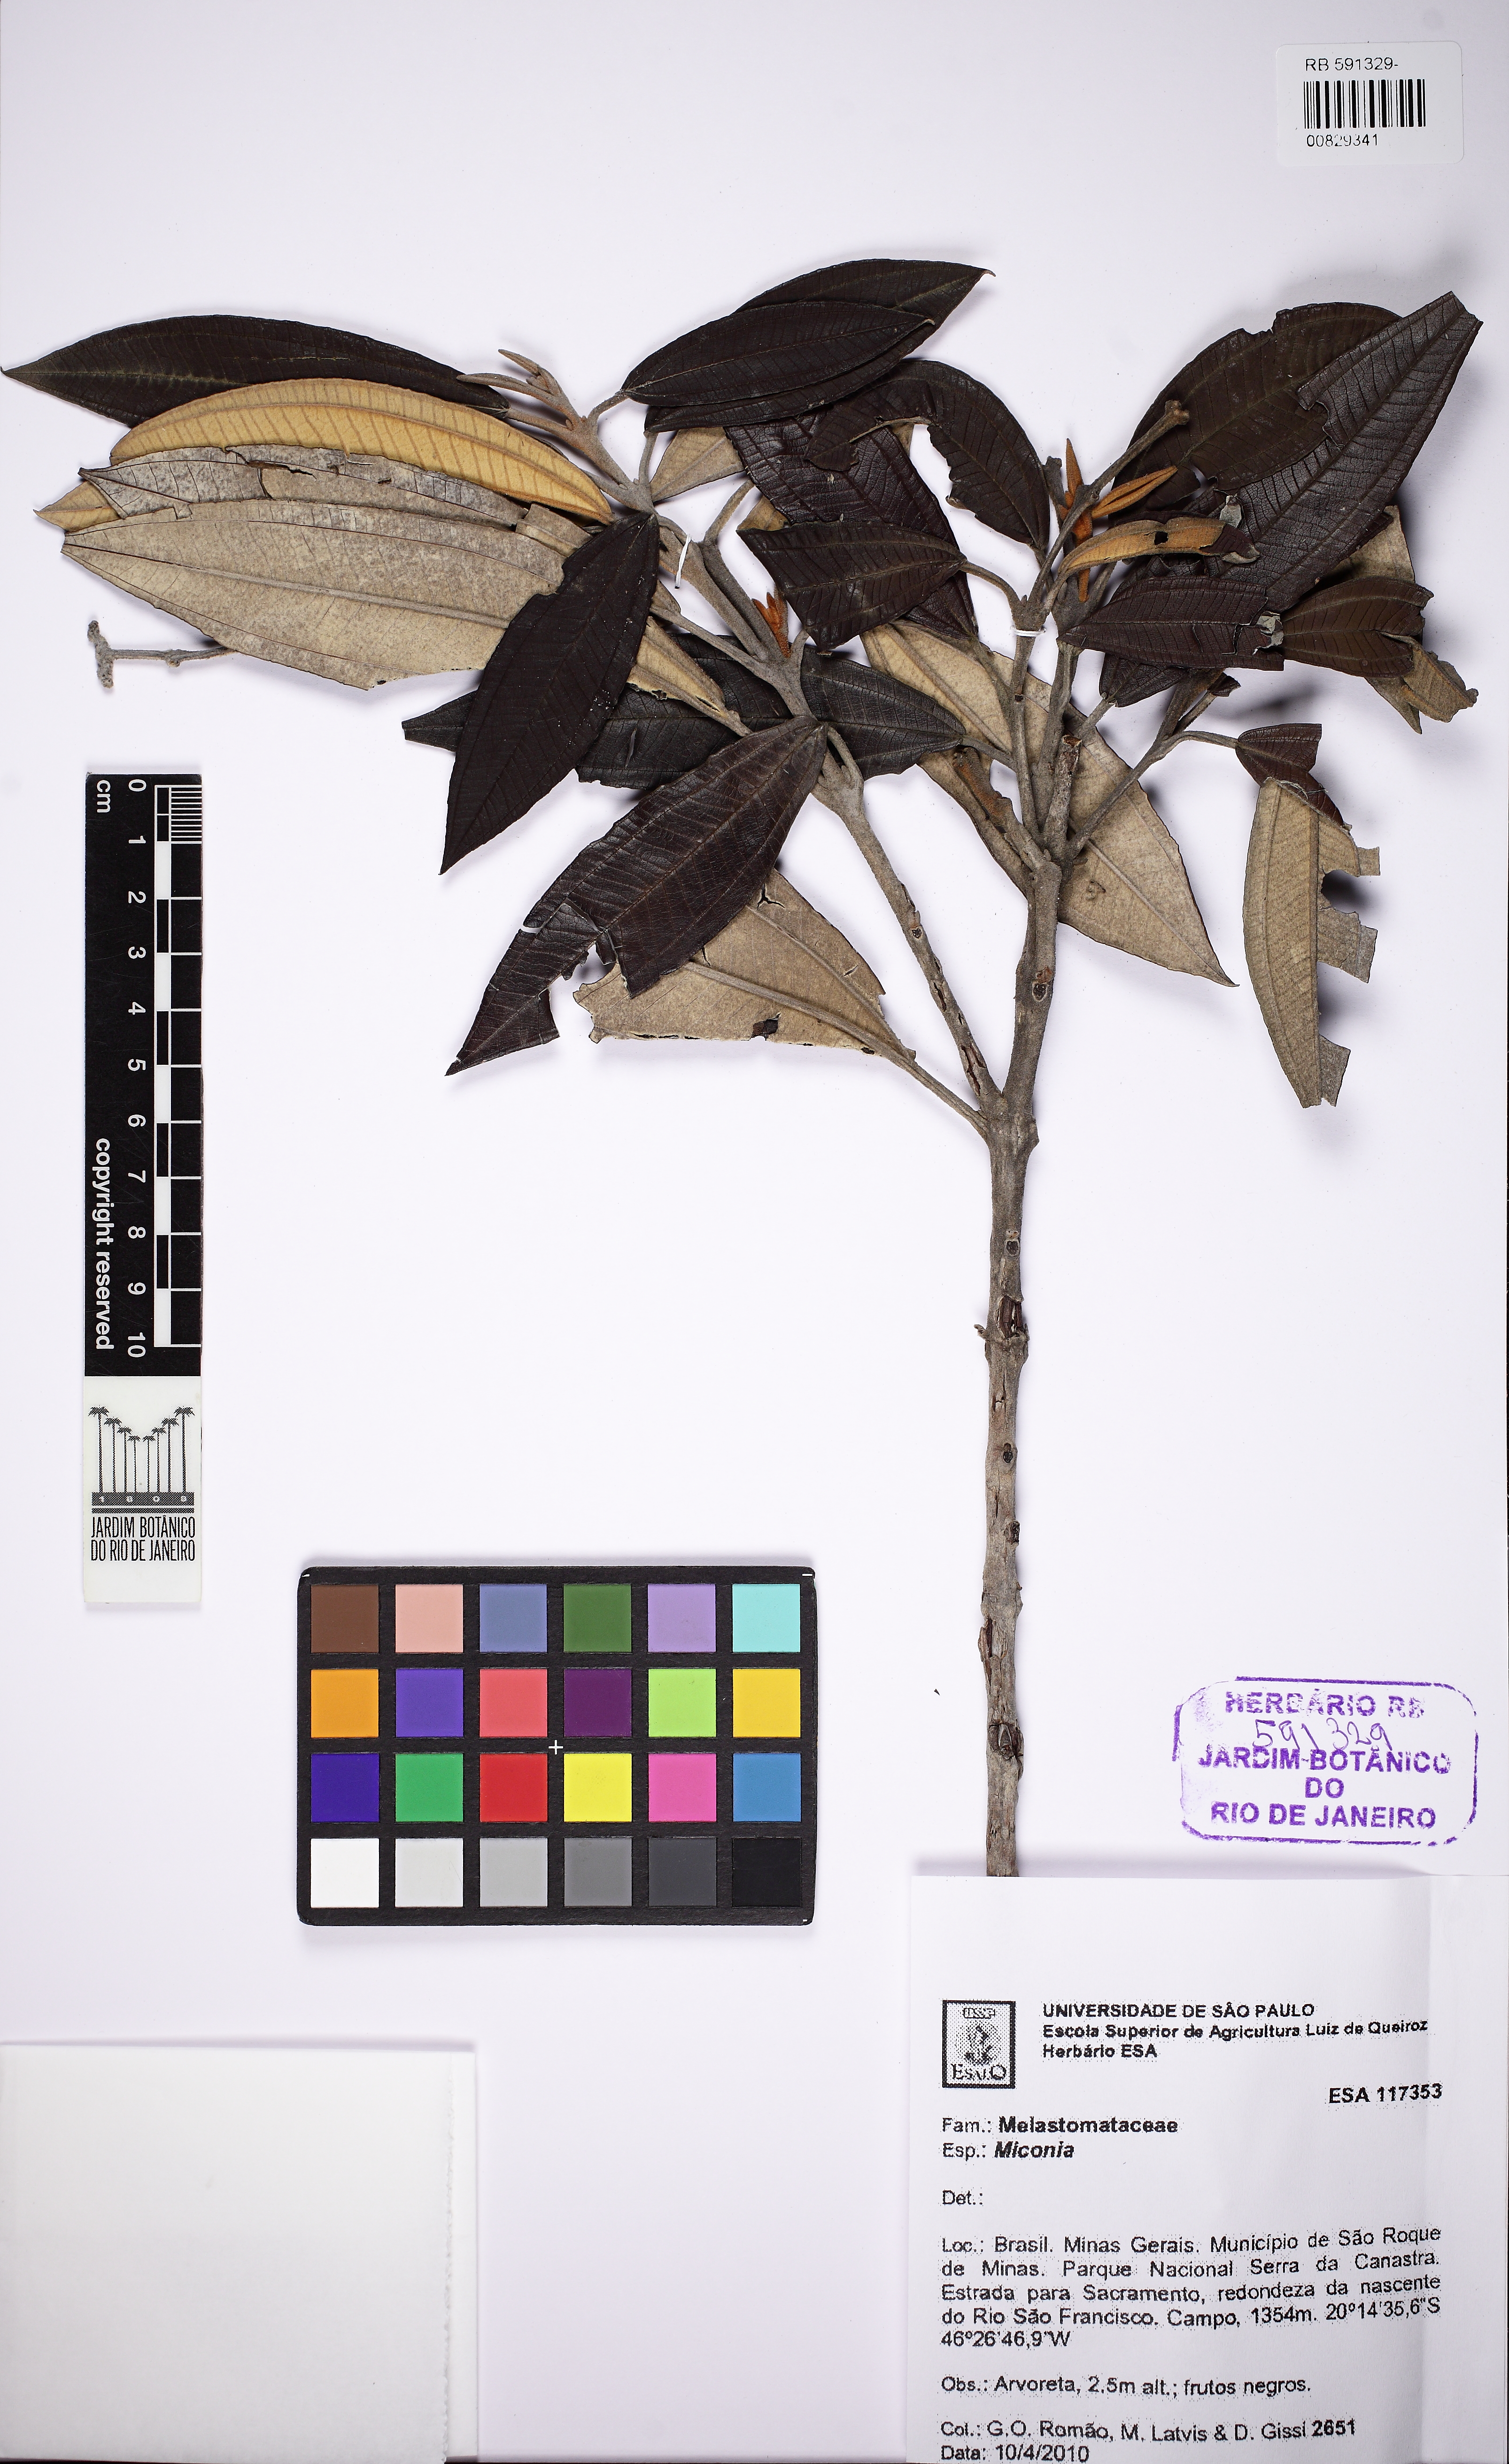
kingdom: Plantae
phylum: Tracheophyta
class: Magnoliopsida
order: Myrtales
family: Melastomataceae
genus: Miconia
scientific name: Miconia
